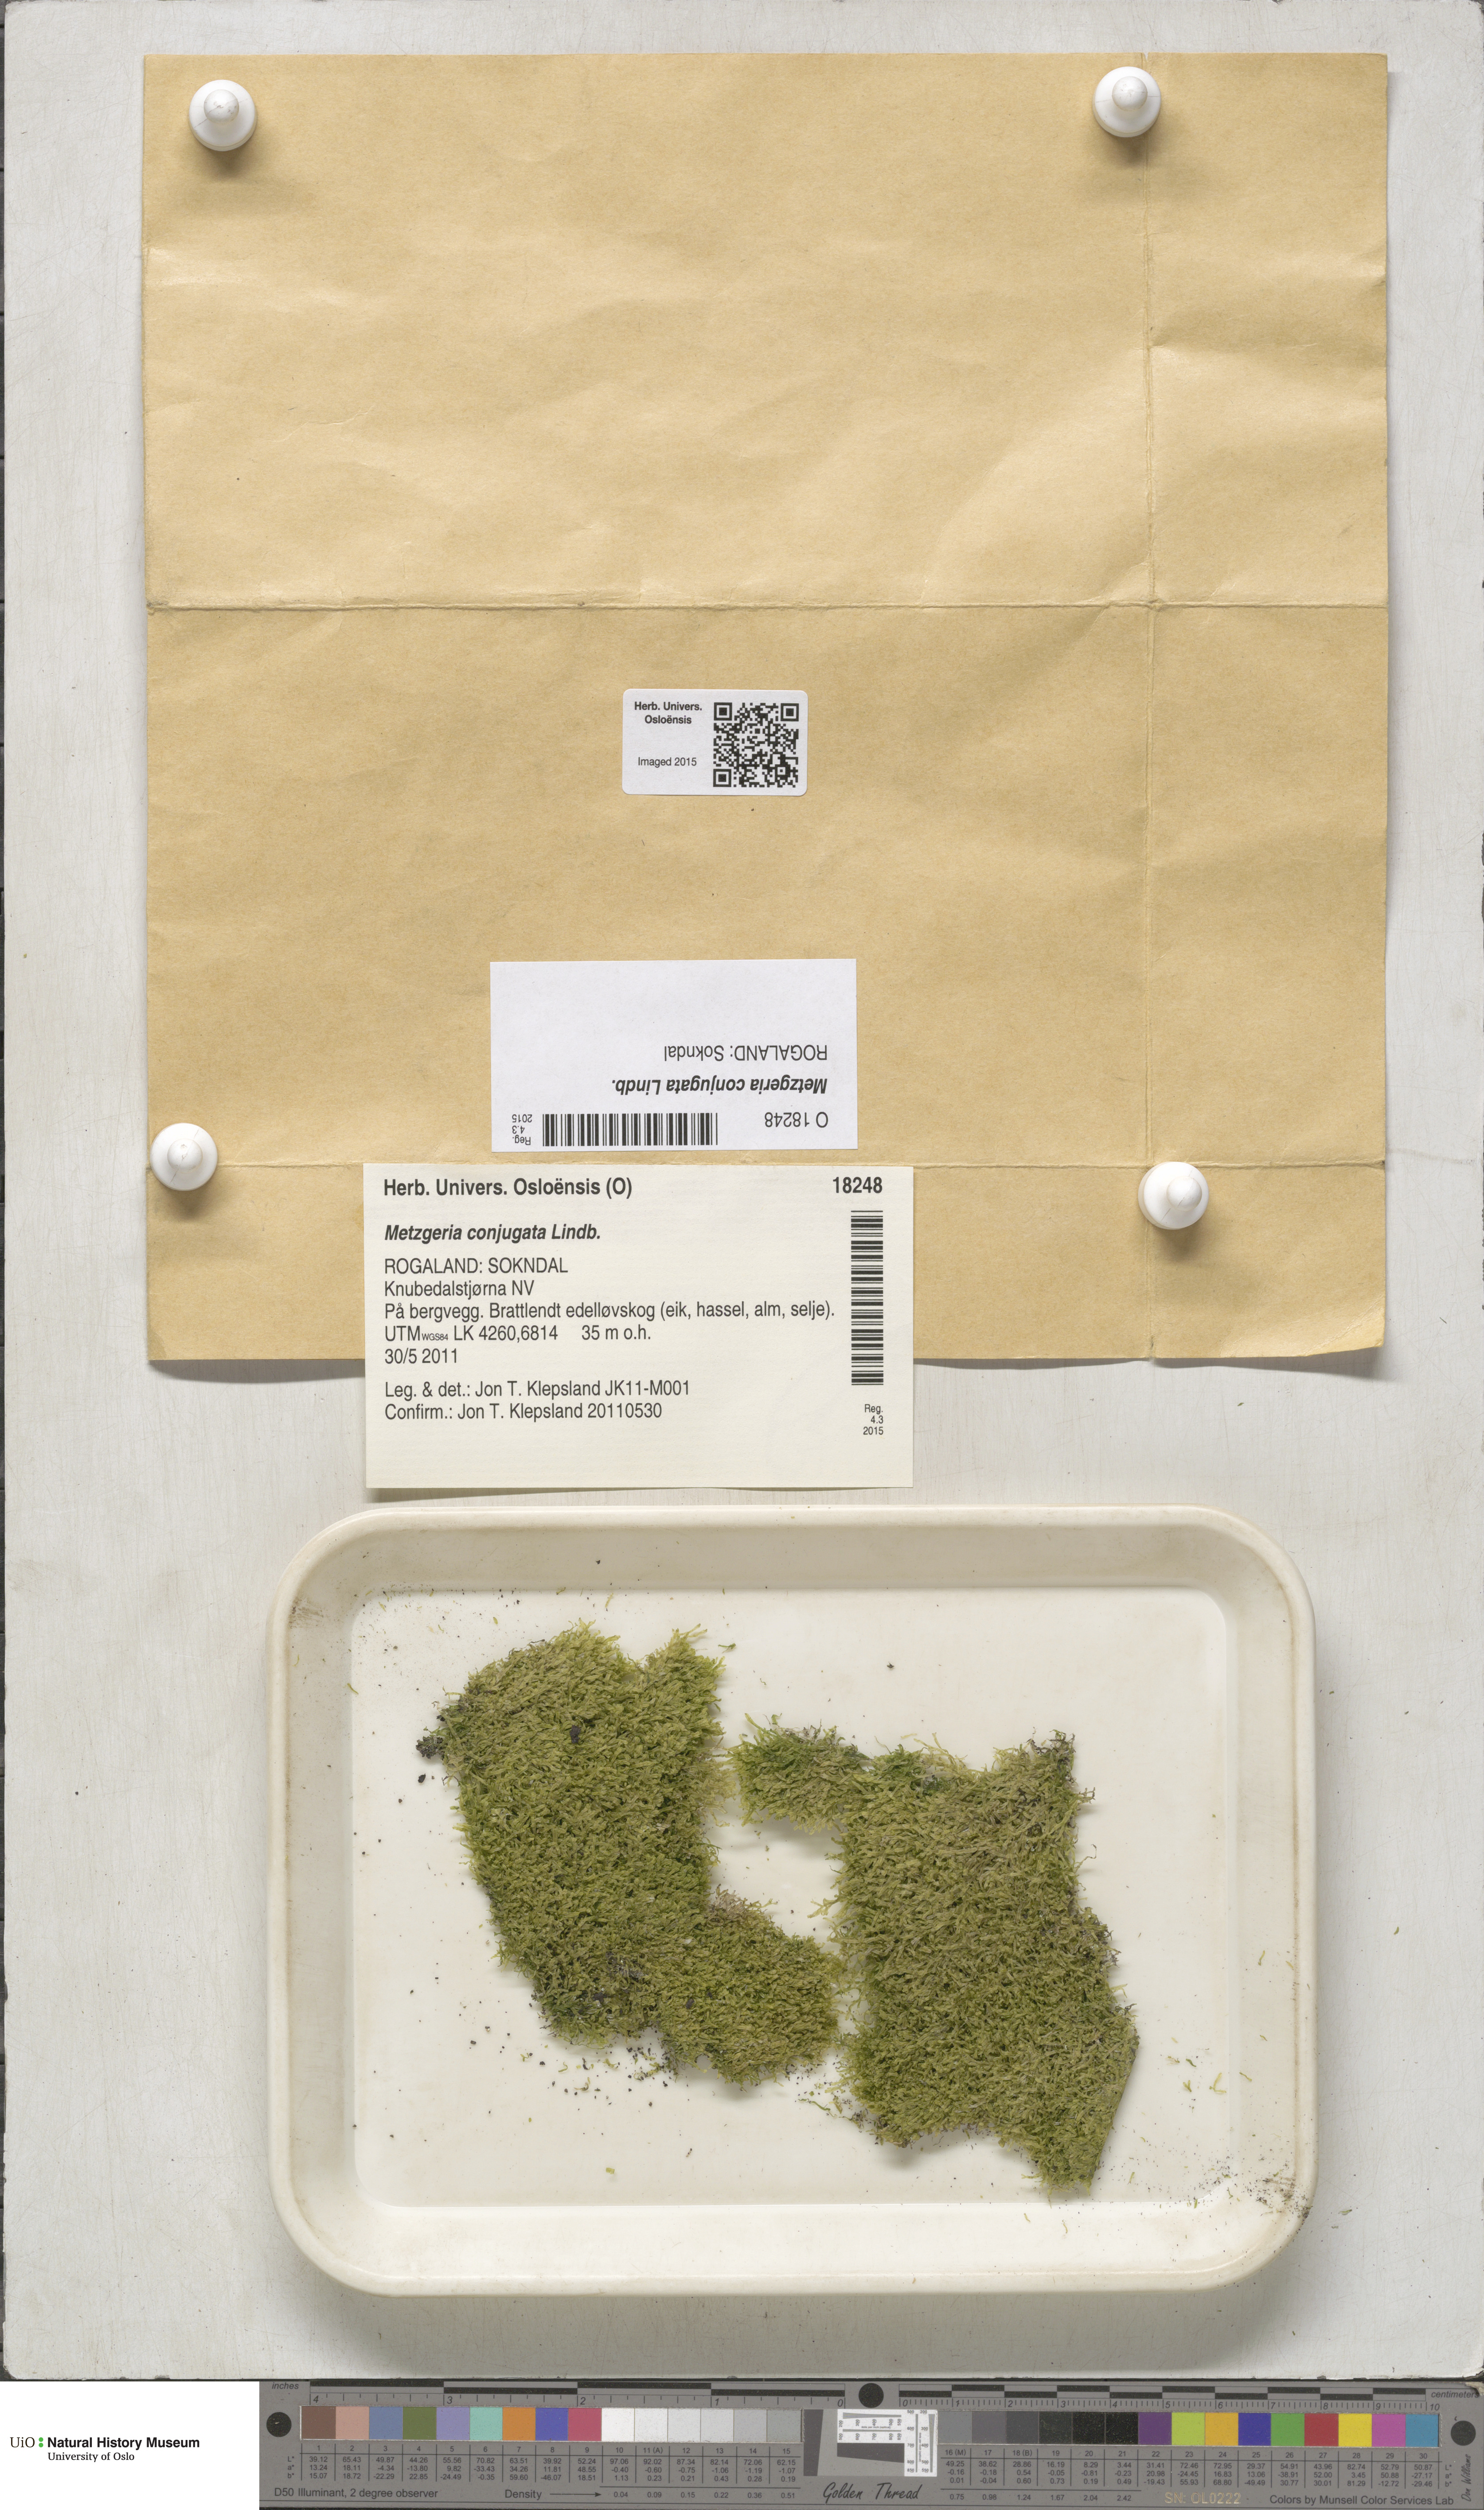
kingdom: Plantae
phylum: Marchantiophyta
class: Jungermanniopsida
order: Metzgeriales
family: Metzgeriaceae
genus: Metzgeria
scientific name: Metzgeria conjugata
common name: Rock veilwort
